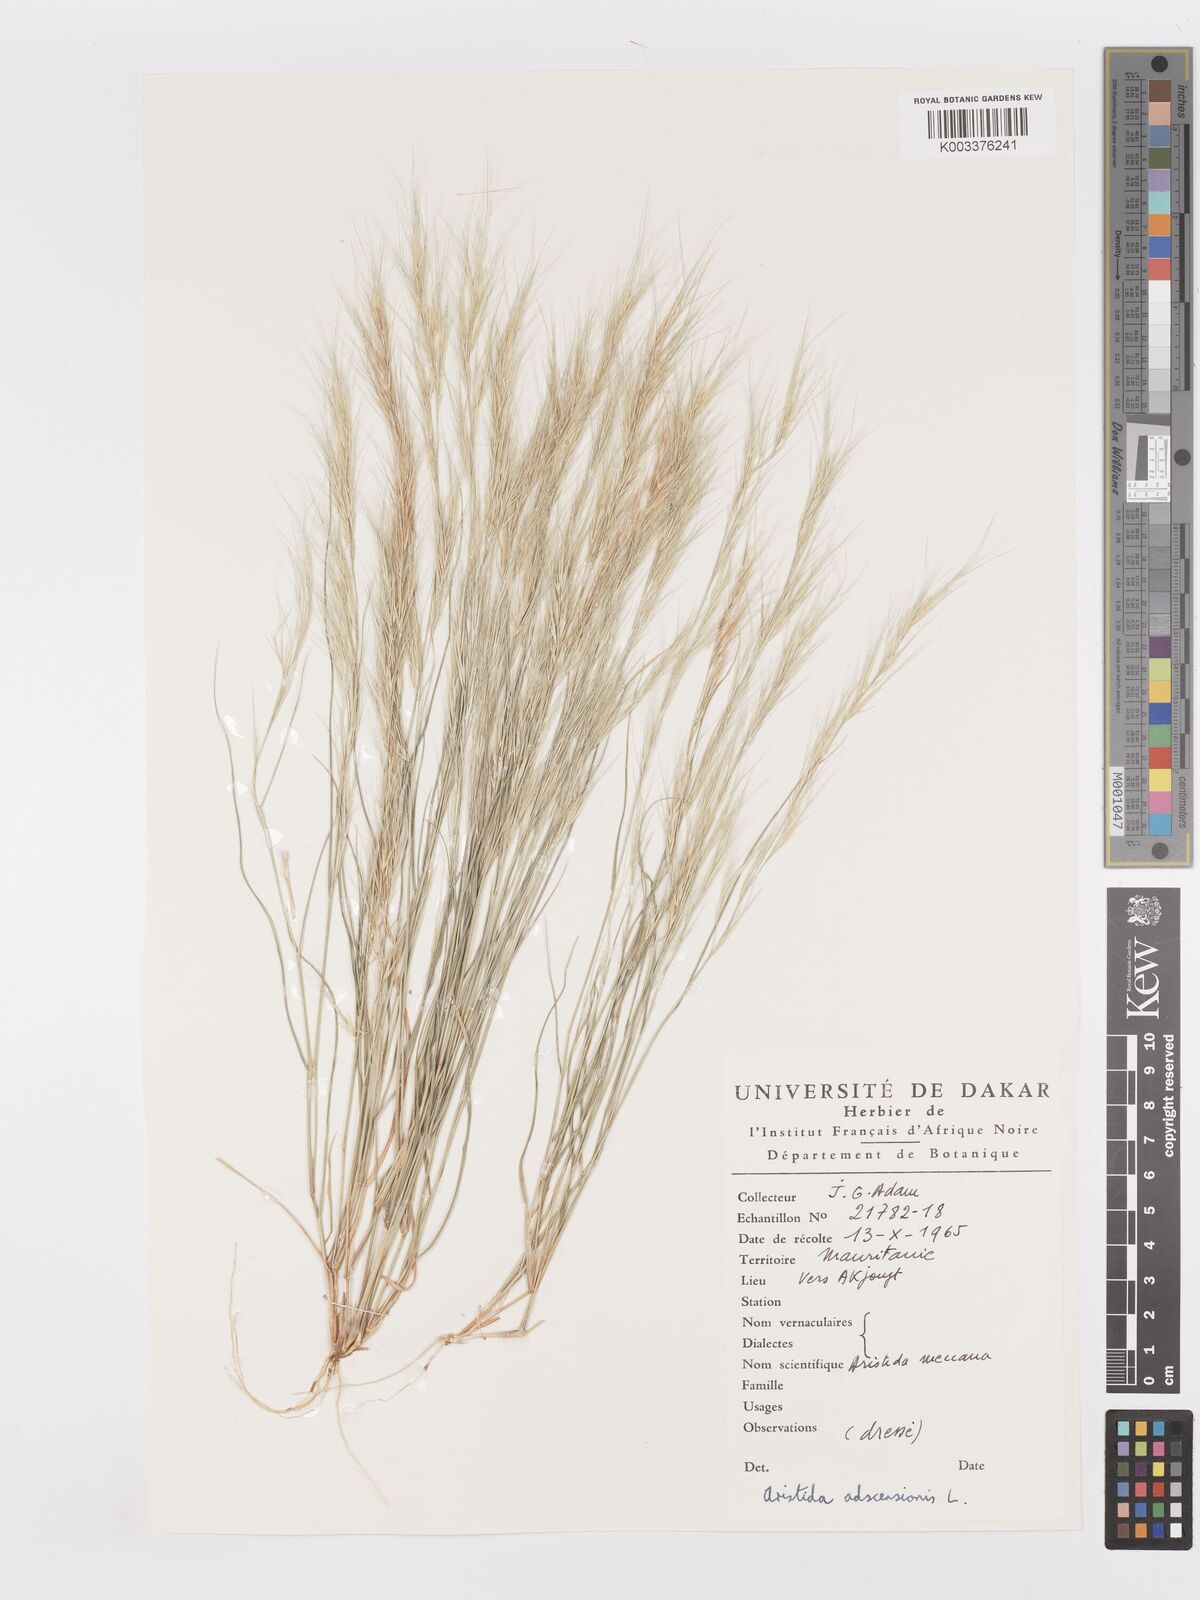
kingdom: Plantae
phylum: Tracheophyta
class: Liliopsida
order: Poales
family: Poaceae
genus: Aristida
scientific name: Aristida adscensionis
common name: Sixweeks threeawn
